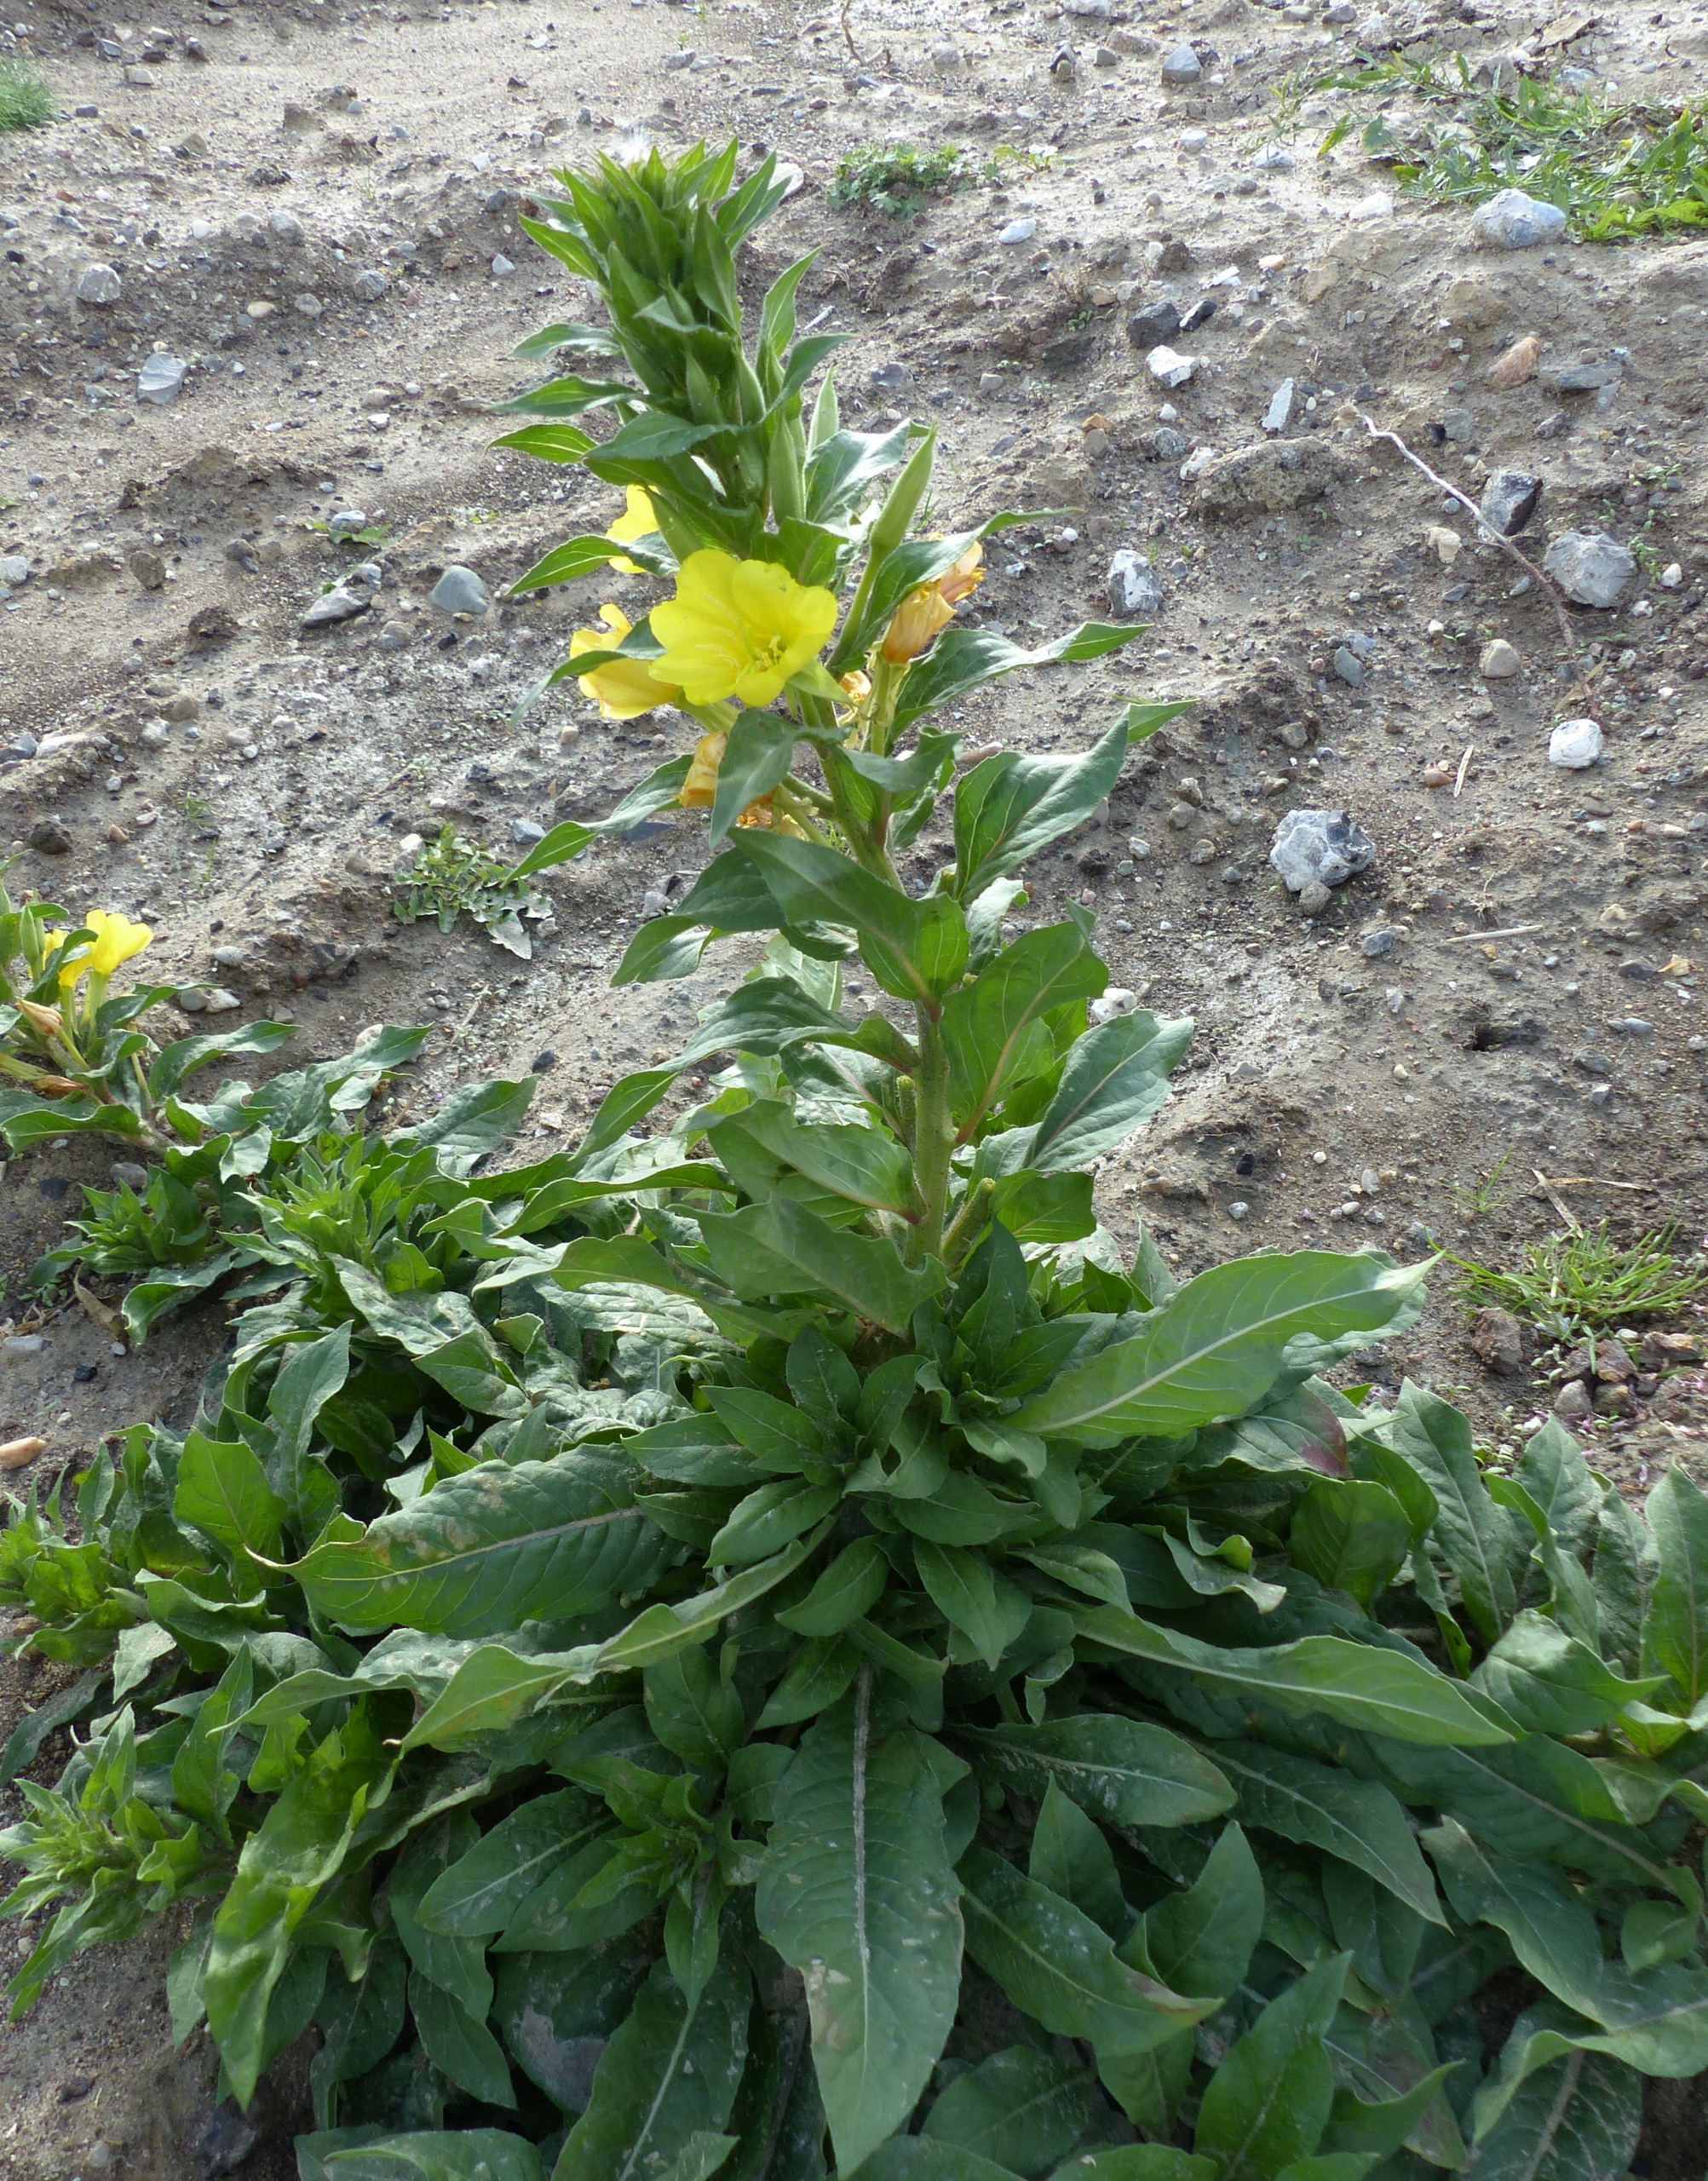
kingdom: Plantae
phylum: Tracheophyta
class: Magnoliopsida
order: Myrtales
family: Onagraceae
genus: Oenothera
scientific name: Oenothera biennis
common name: Rødfrugtet natlys
